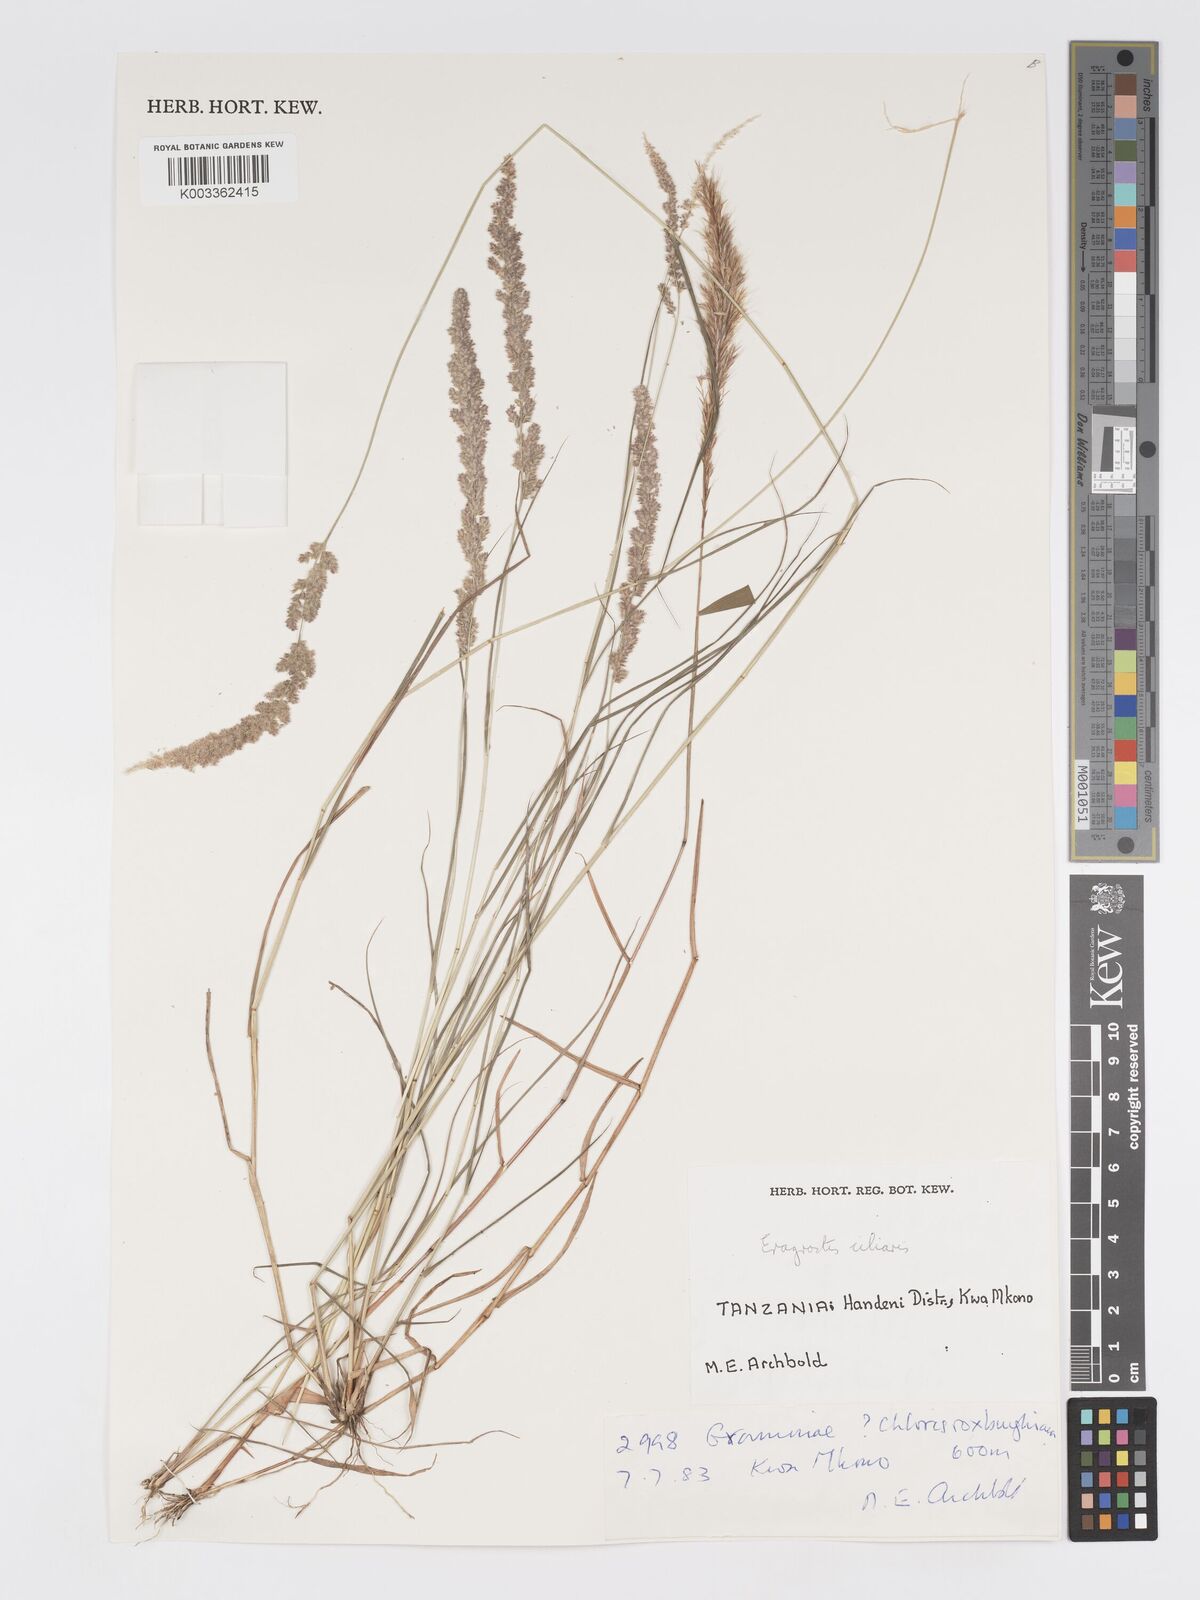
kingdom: Plantae
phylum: Tracheophyta
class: Liliopsida
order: Poales
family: Poaceae
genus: Eragrostis
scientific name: Eragrostis ciliaris
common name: Gophertail lovegrass
